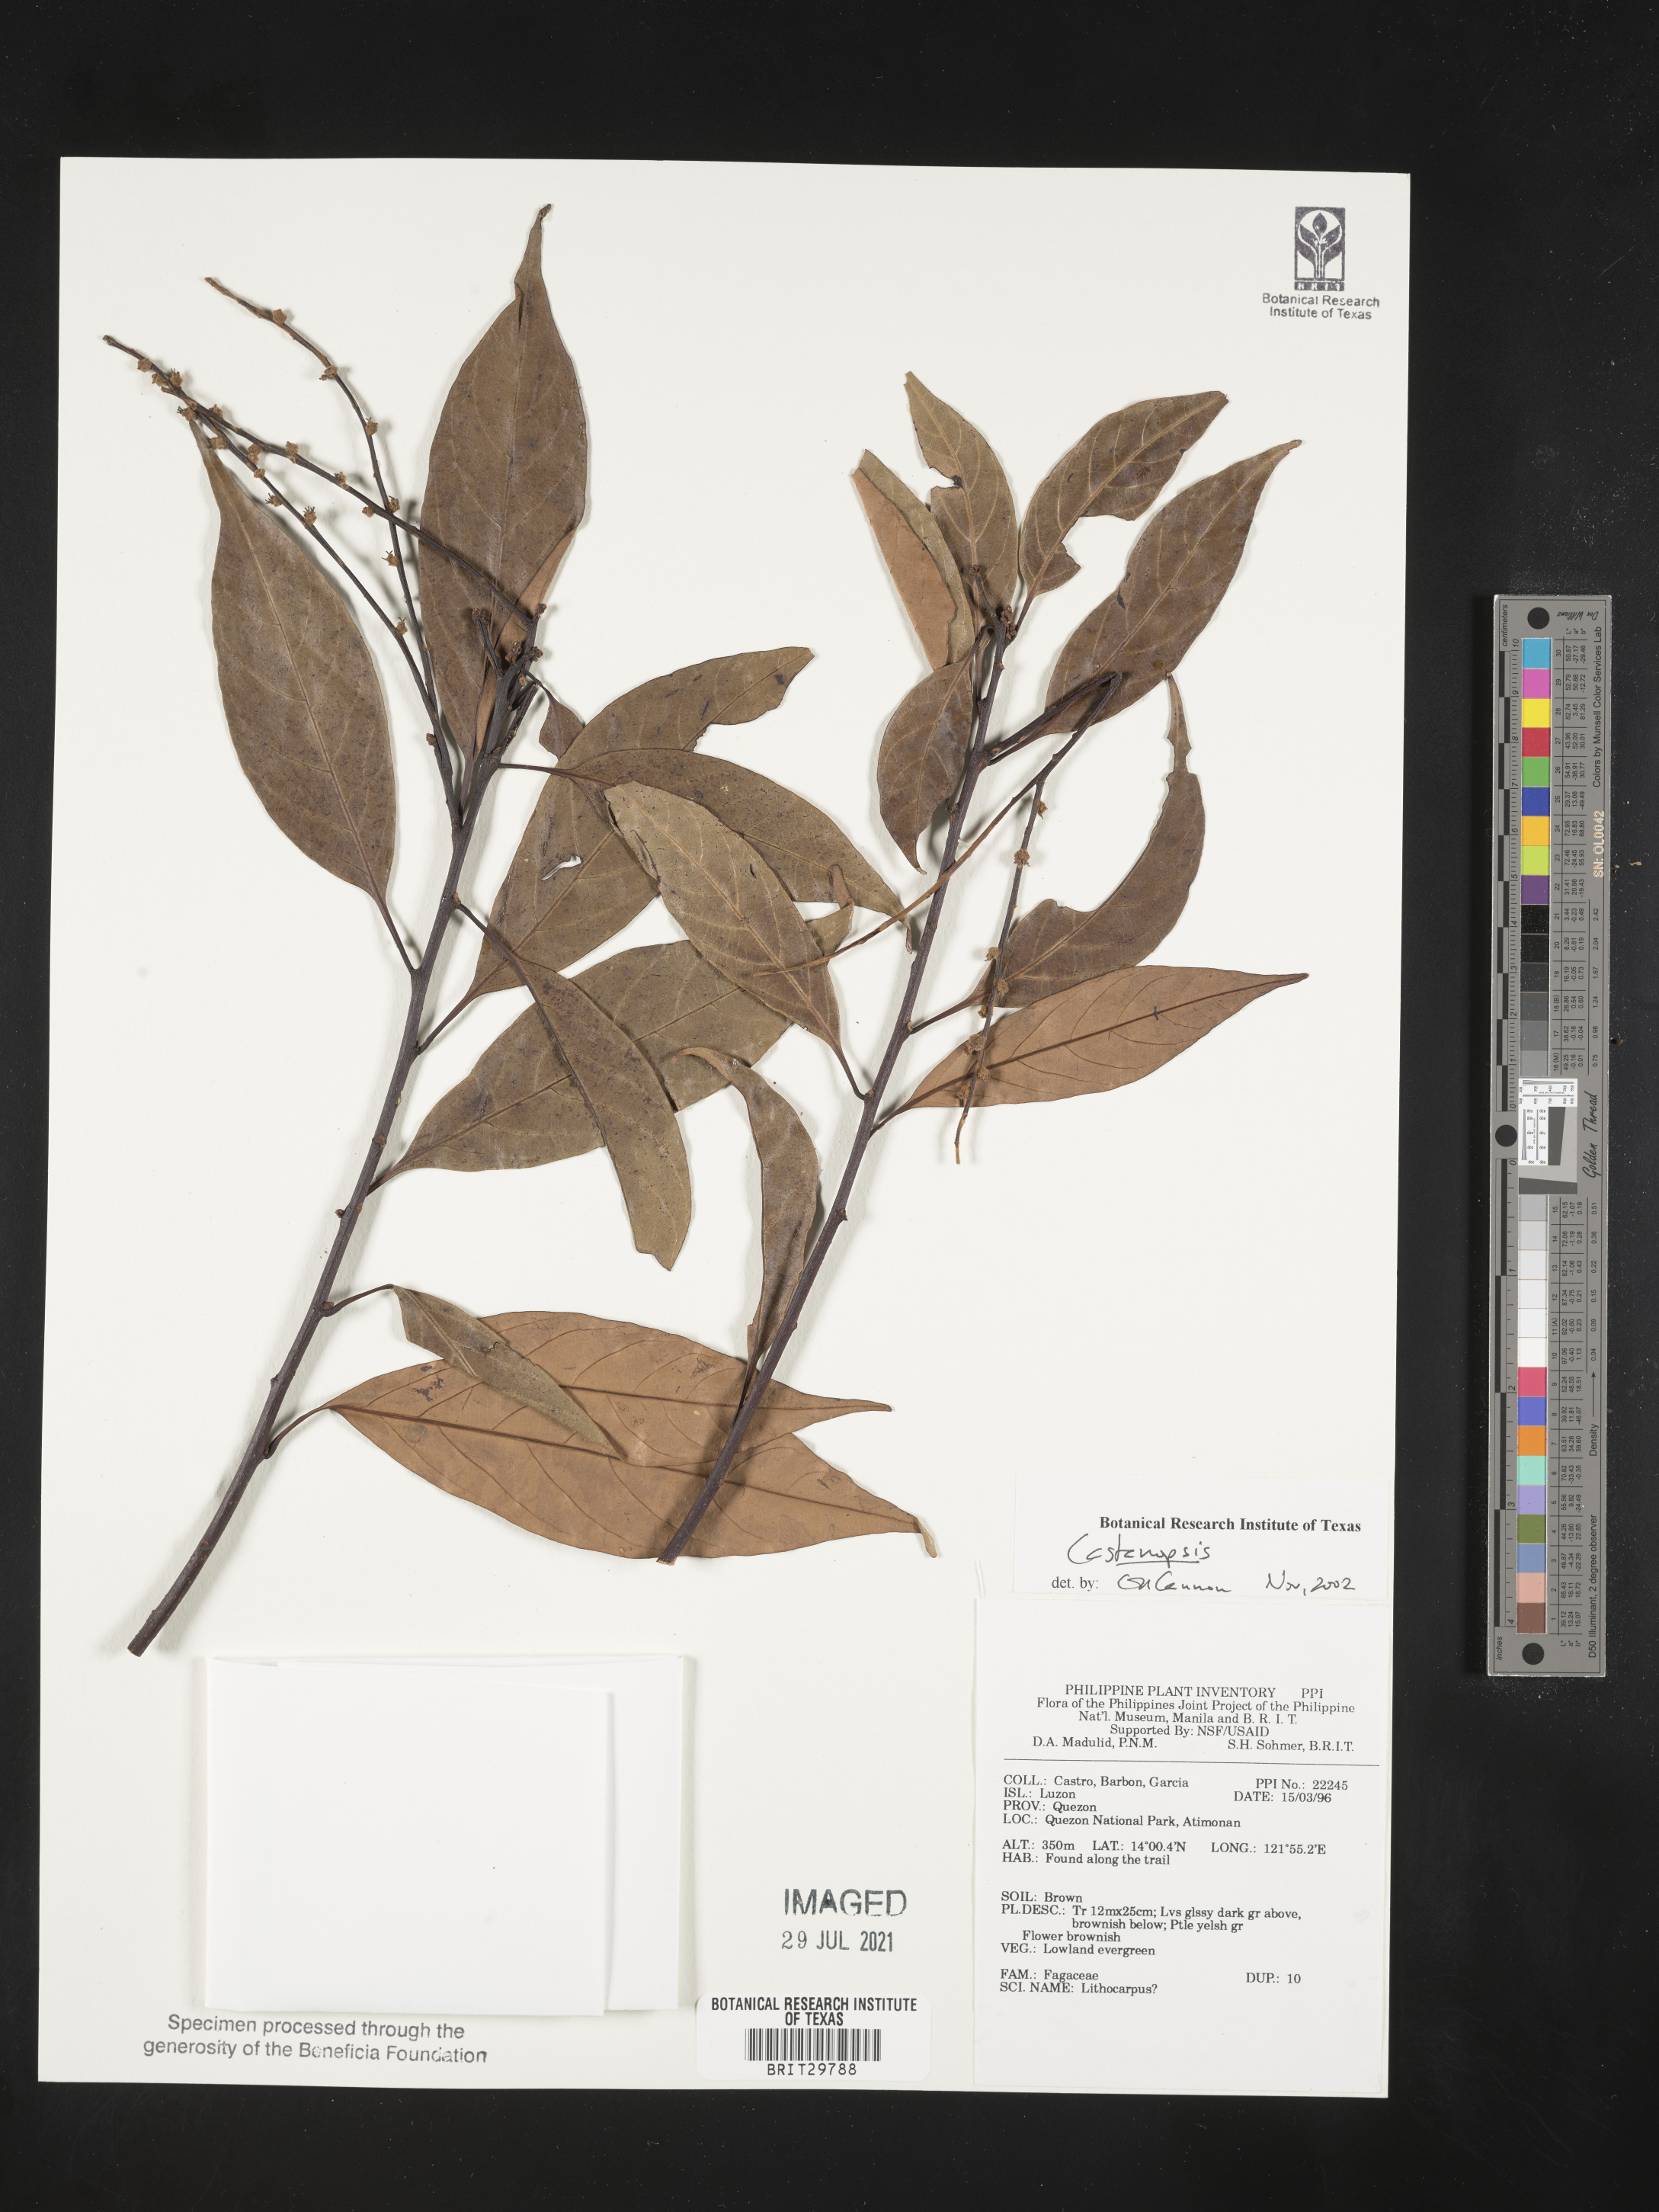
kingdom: Plantae
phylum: Tracheophyta
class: Magnoliopsida
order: Fagales
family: Fagaceae
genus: Castanopsis
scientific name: Castanopsis
